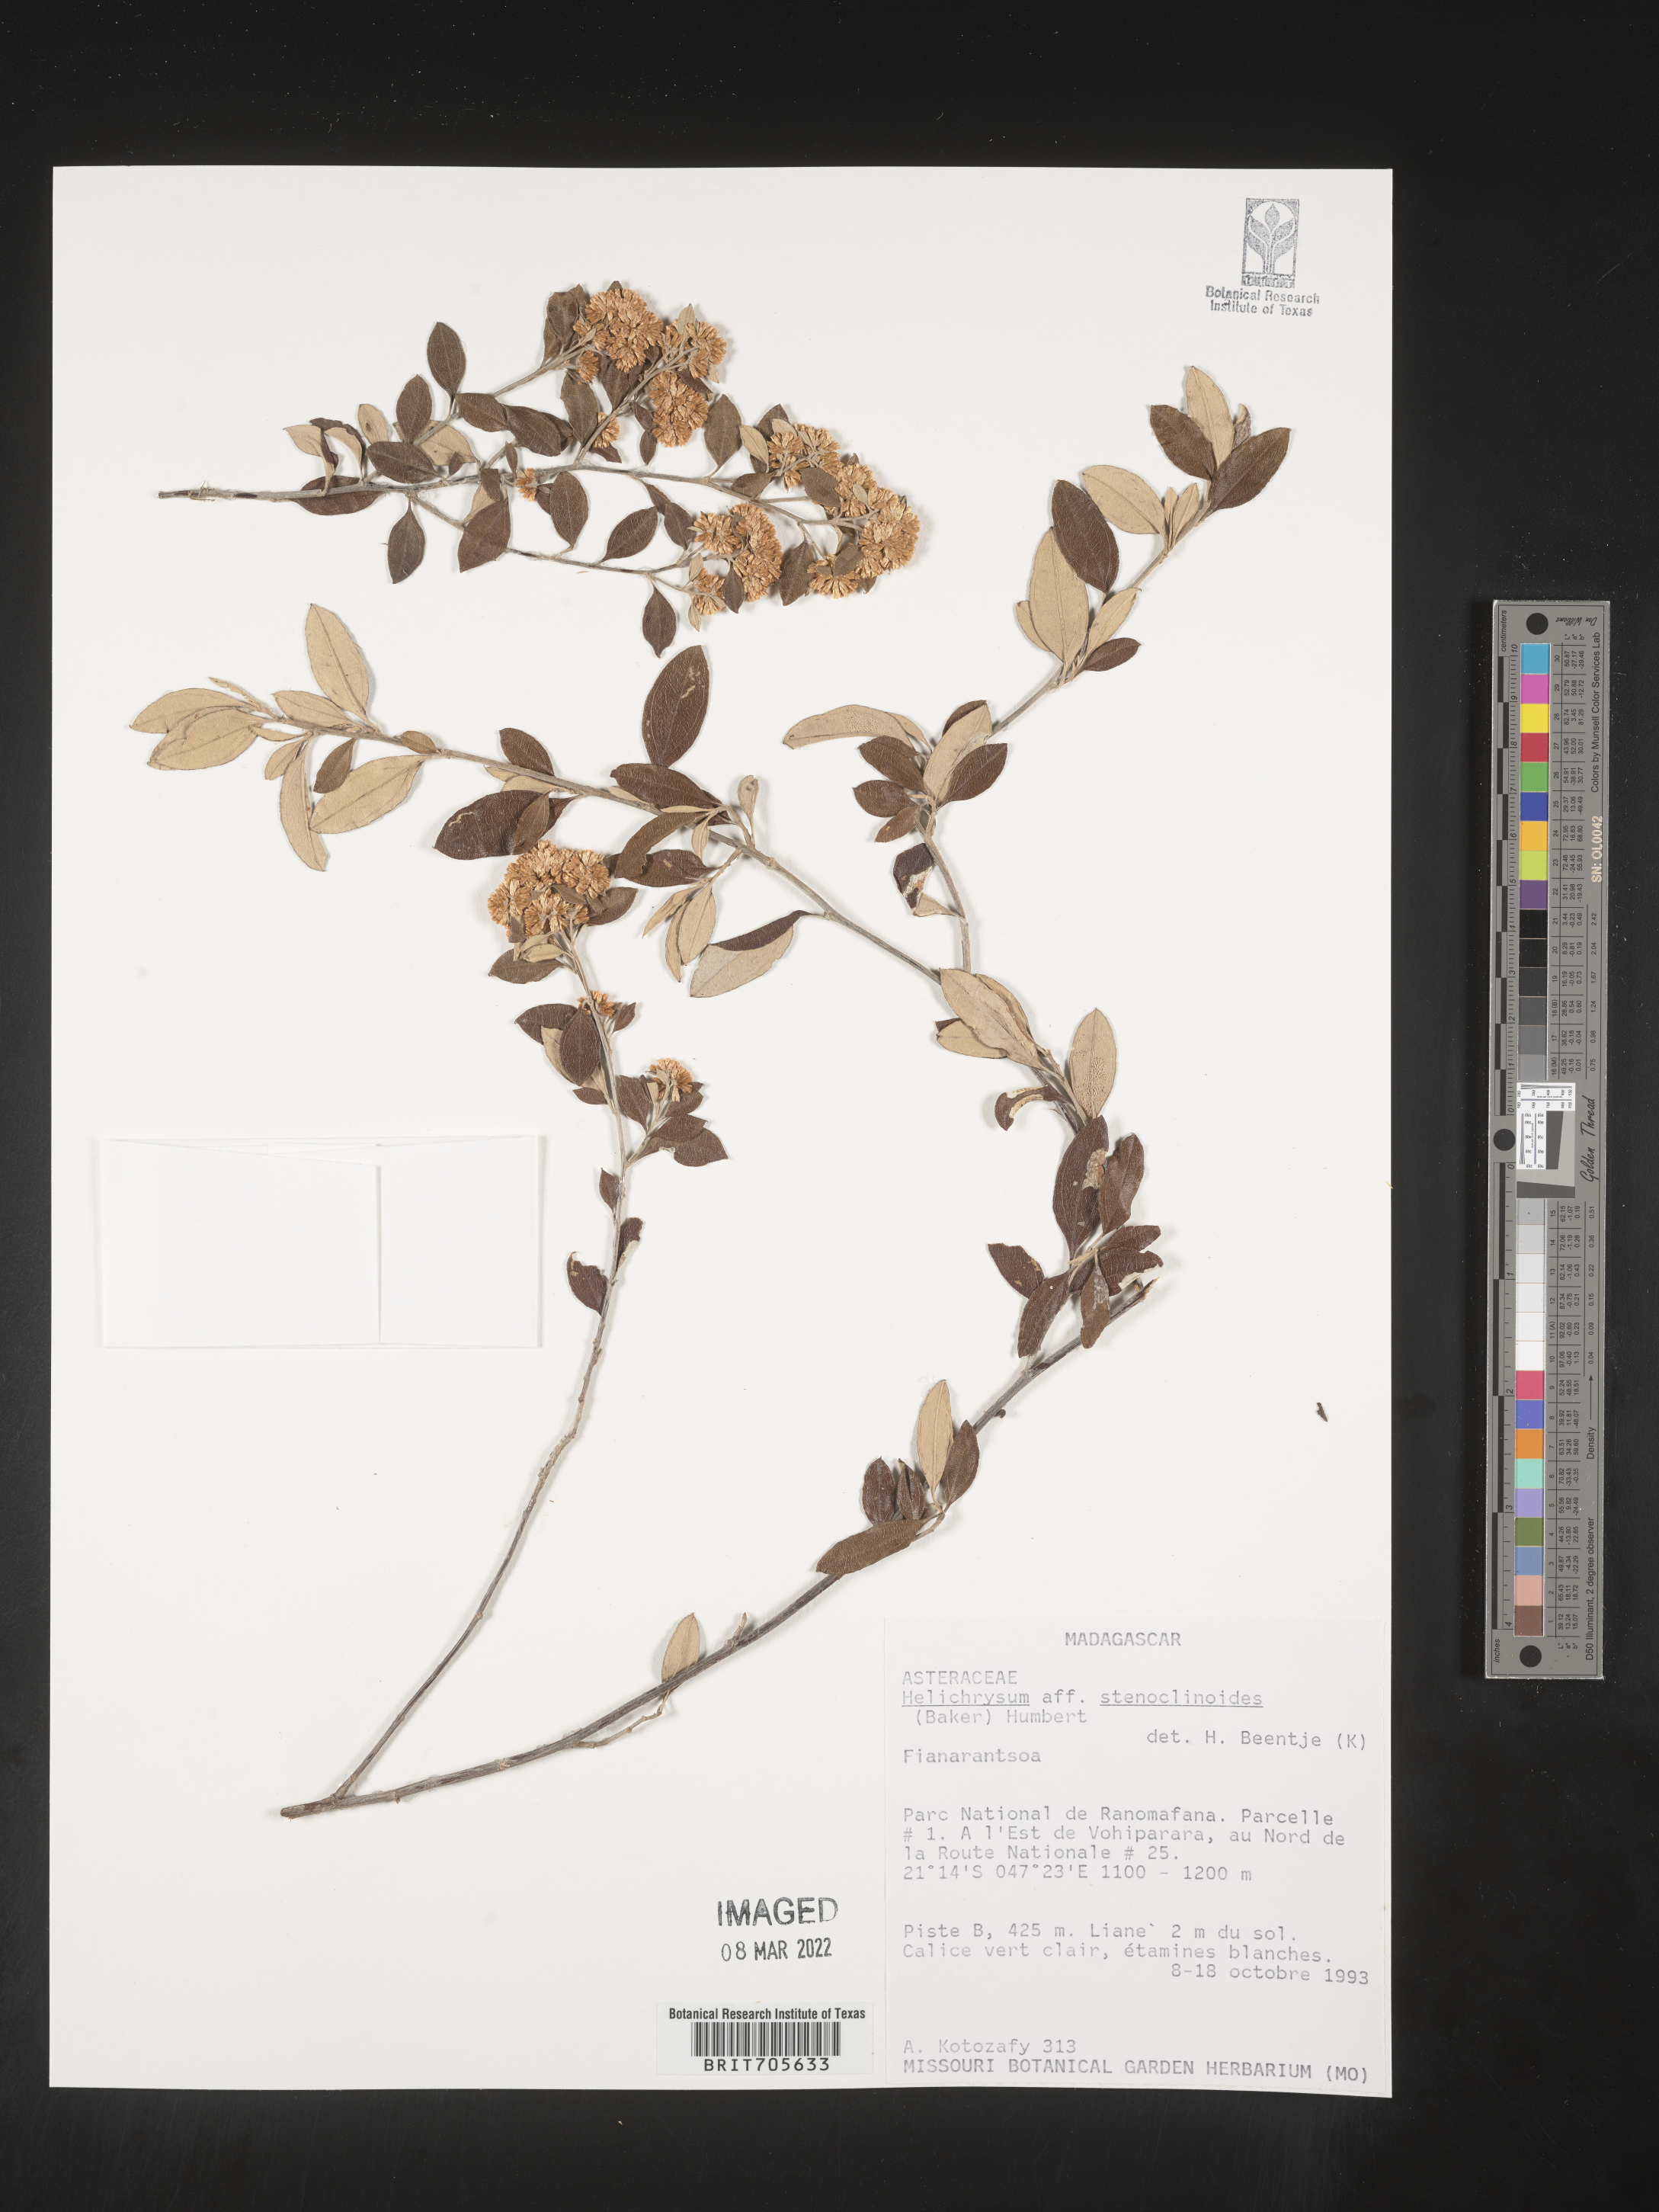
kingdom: Plantae
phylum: Tracheophyta
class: Magnoliopsida
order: Asterales
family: Asteraceae
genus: Helichrysum
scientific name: Helichrysum
